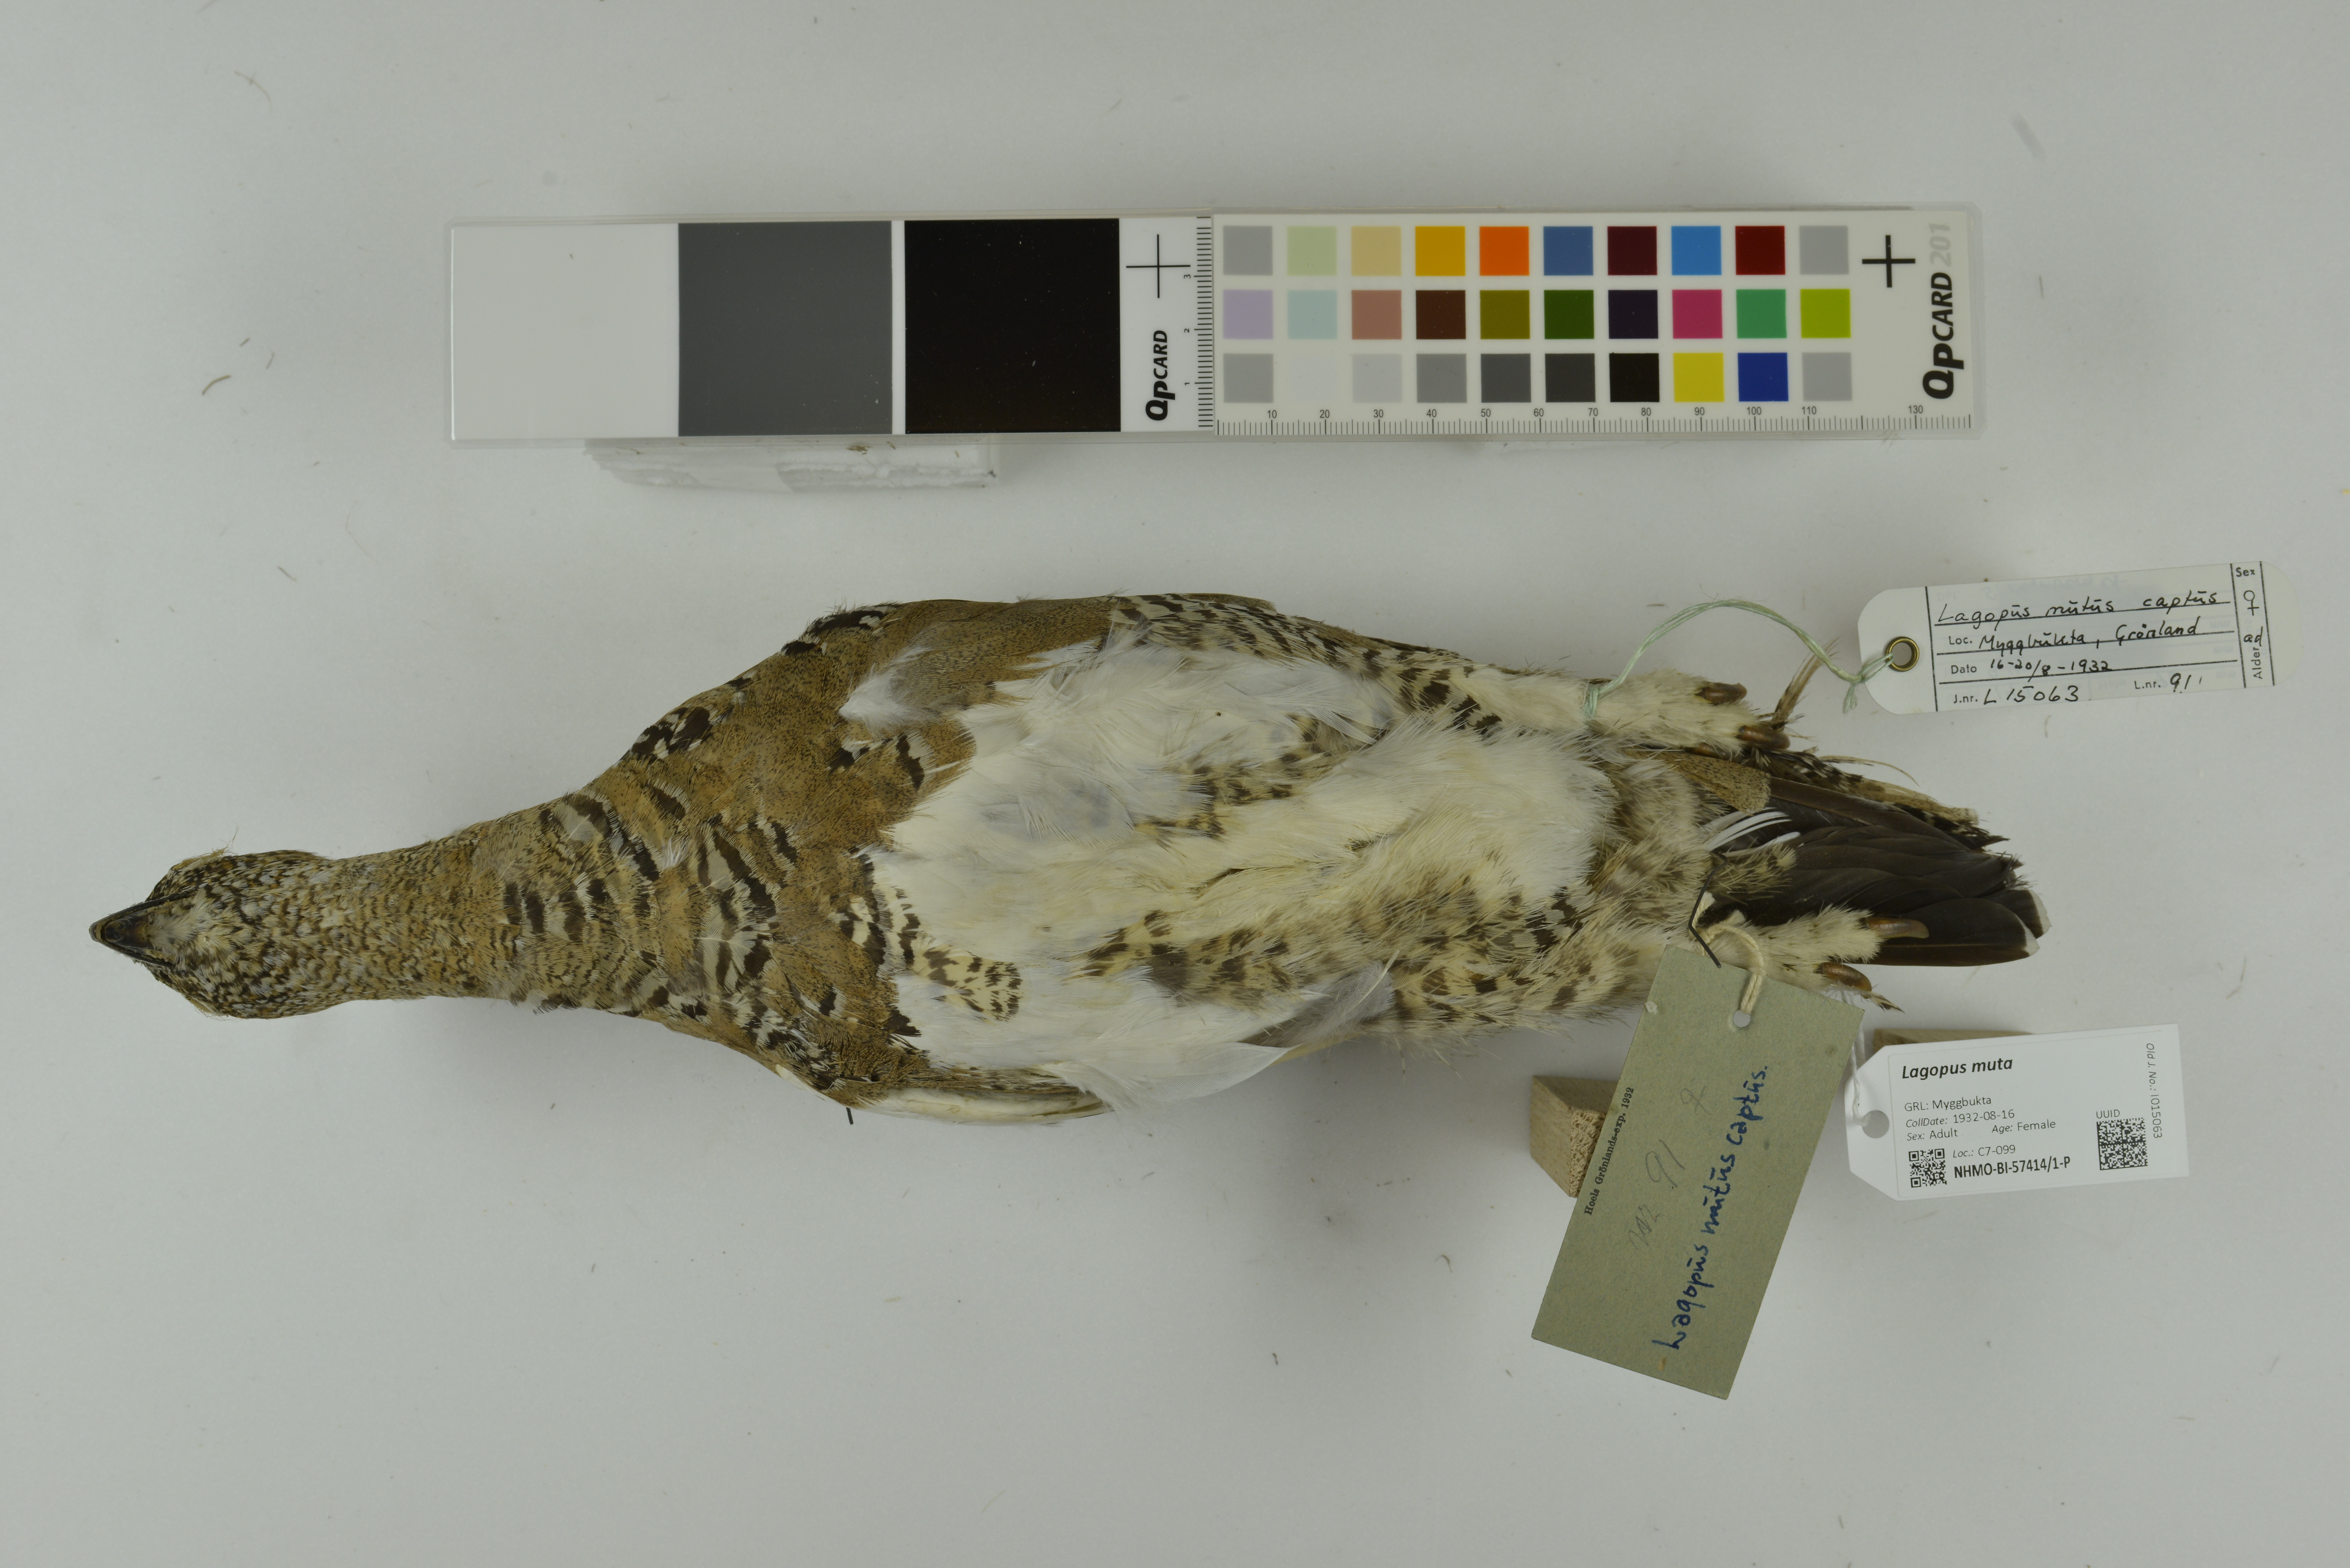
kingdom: Animalia
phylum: Chordata
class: Aves
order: Galliformes
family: Phasianidae
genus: Lagopus
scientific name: Lagopus muta
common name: Rock ptarmigan
